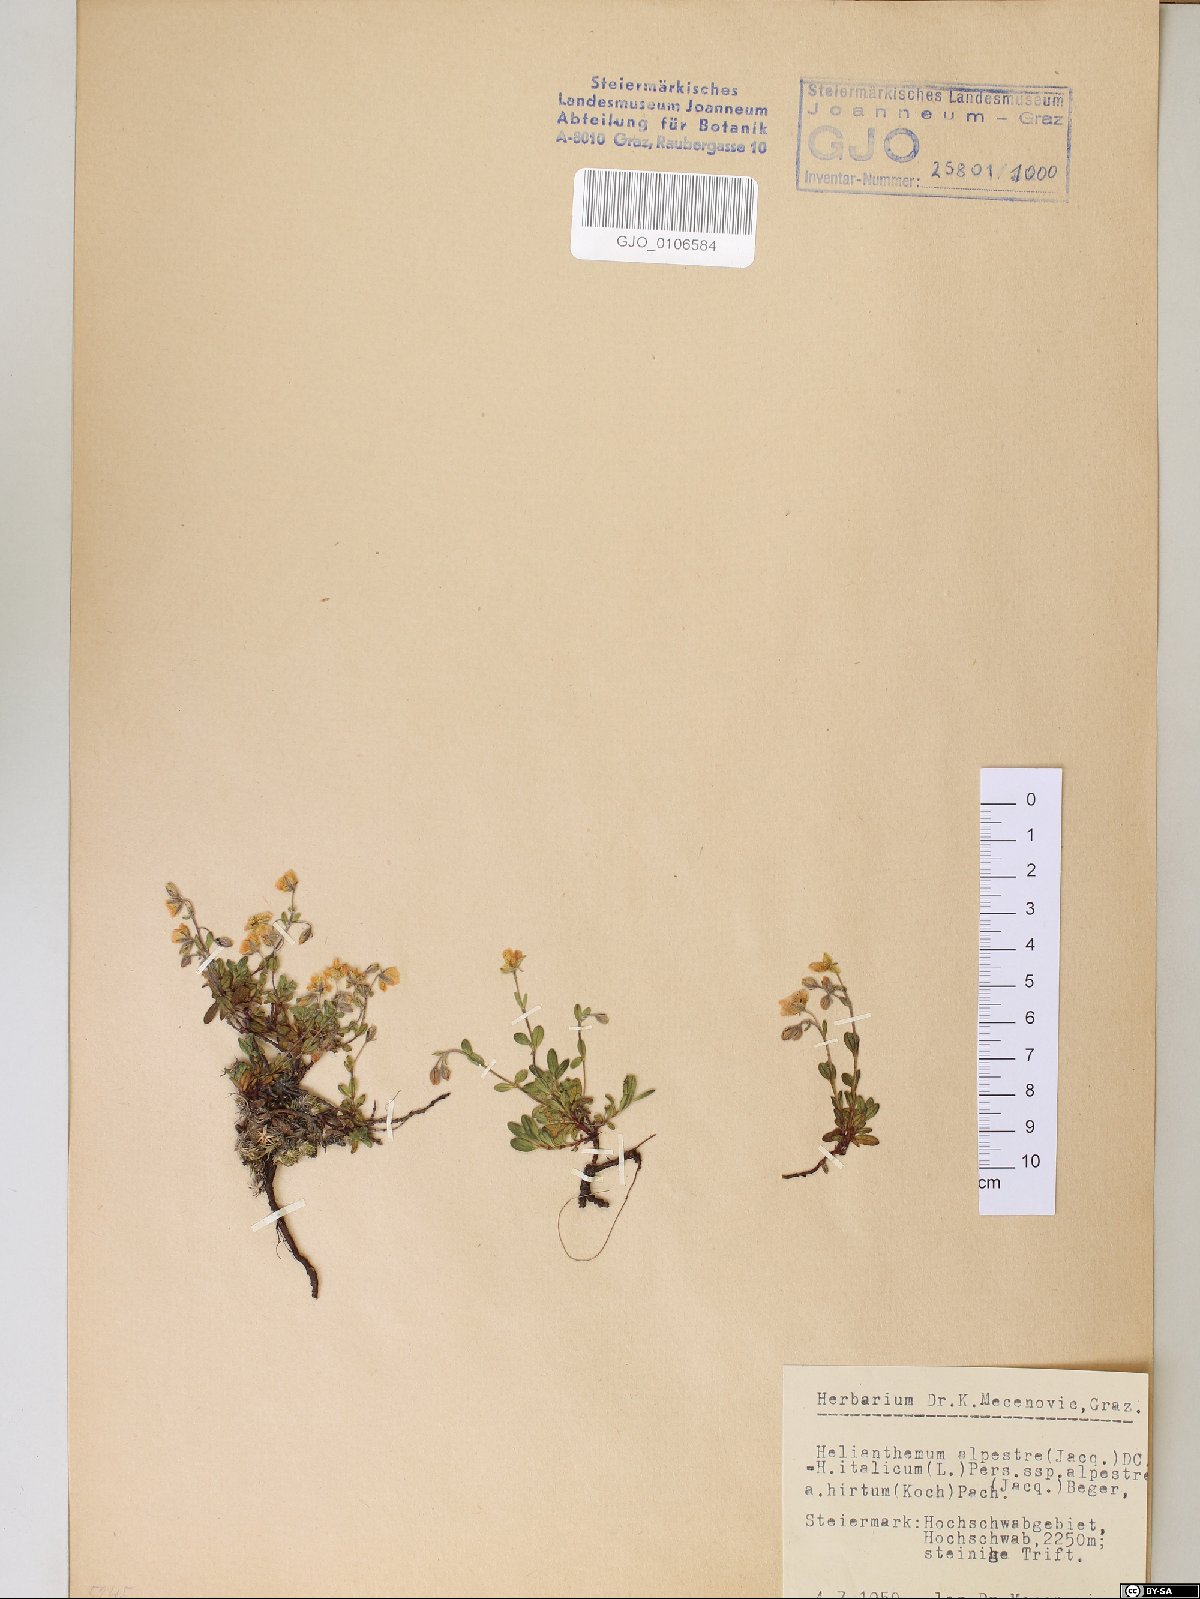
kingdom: Plantae
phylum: Tracheophyta
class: Magnoliopsida
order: Malvales
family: Cistaceae
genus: Helianthemum
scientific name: Helianthemum alpestre
